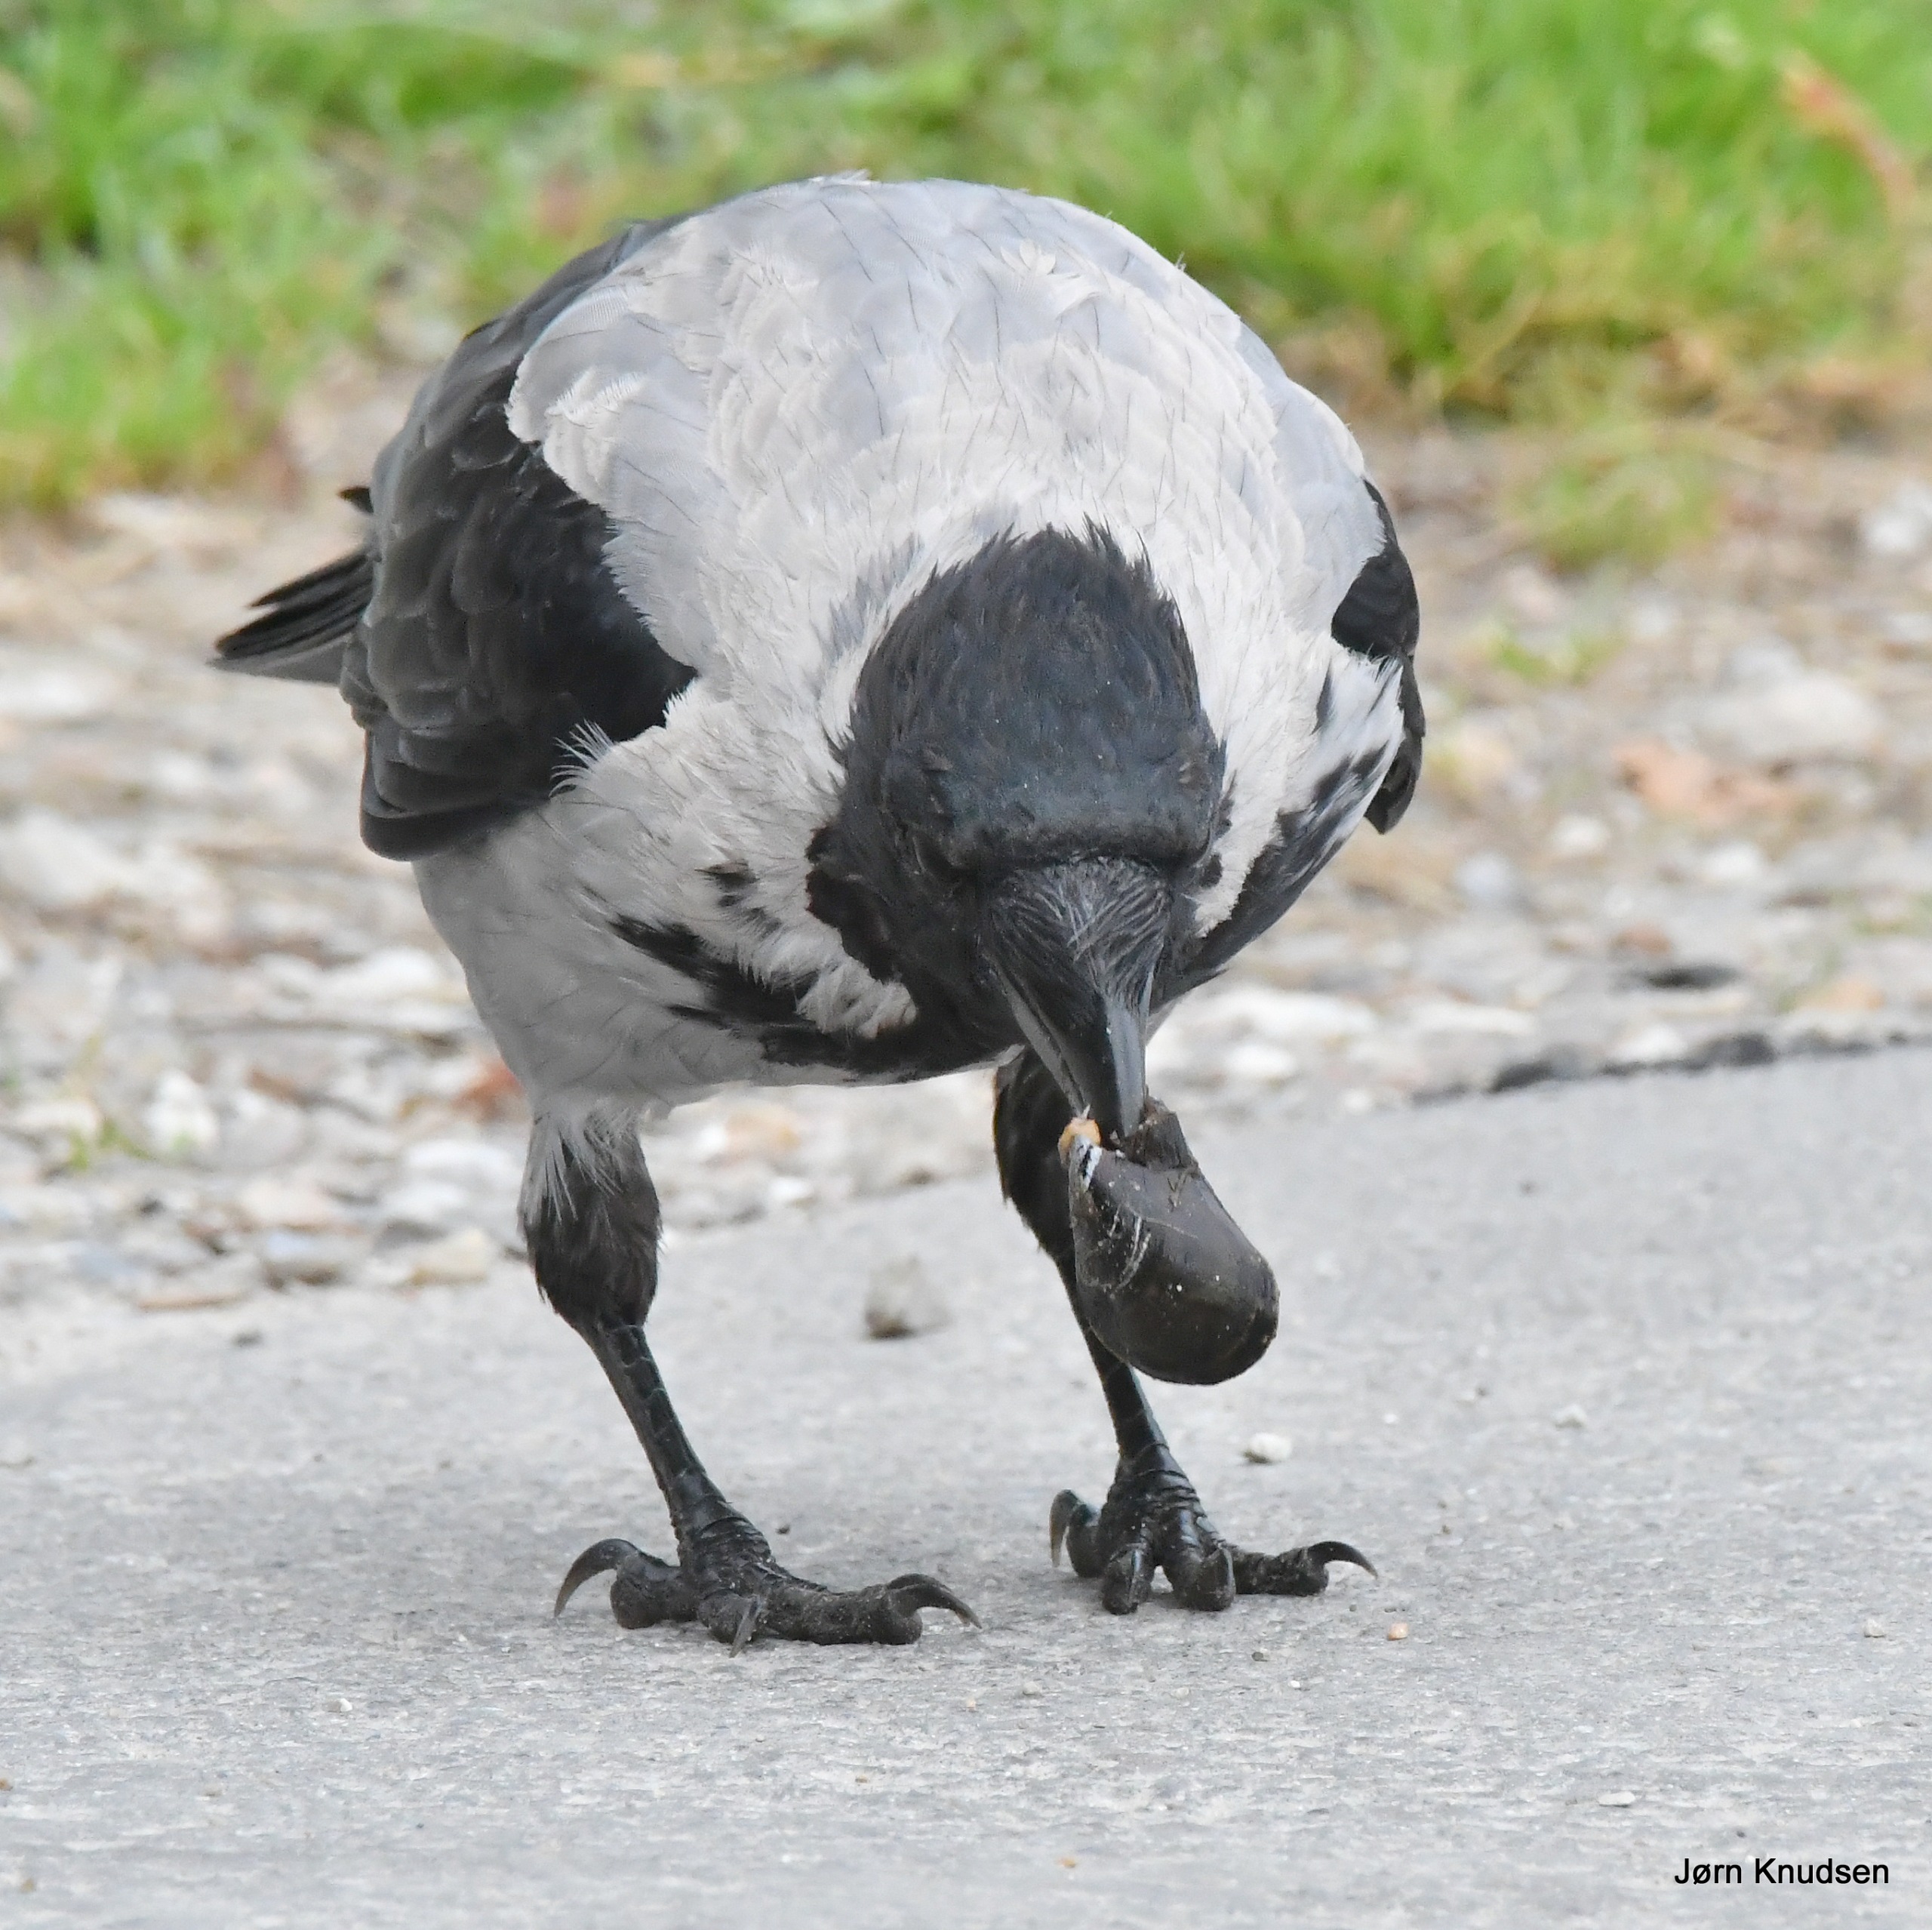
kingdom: Animalia
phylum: Chordata
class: Aves
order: Passeriformes
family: Corvidae
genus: Corvus
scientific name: Corvus cornix
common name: Gråkrage
